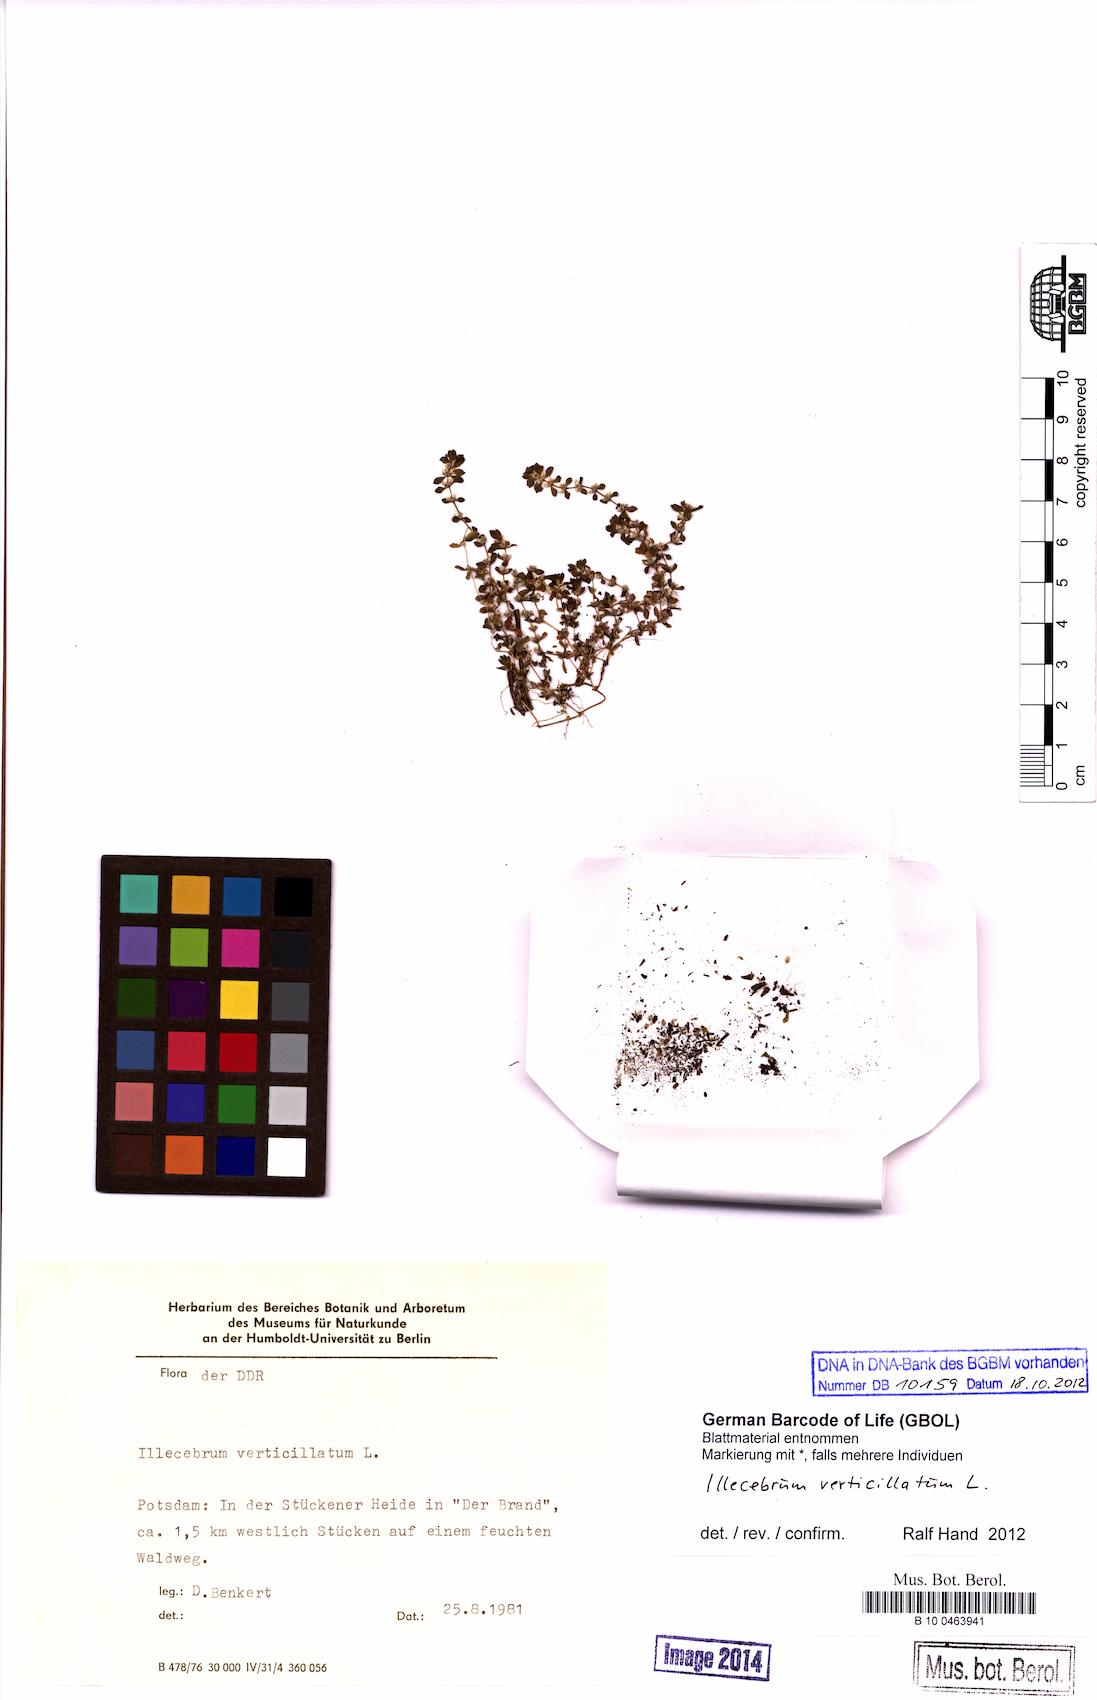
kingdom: Plantae
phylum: Tracheophyta
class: Magnoliopsida
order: Caryophyllales
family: Caryophyllaceae
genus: Illecebrum
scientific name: Illecebrum verticillatum
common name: Coral necklace
